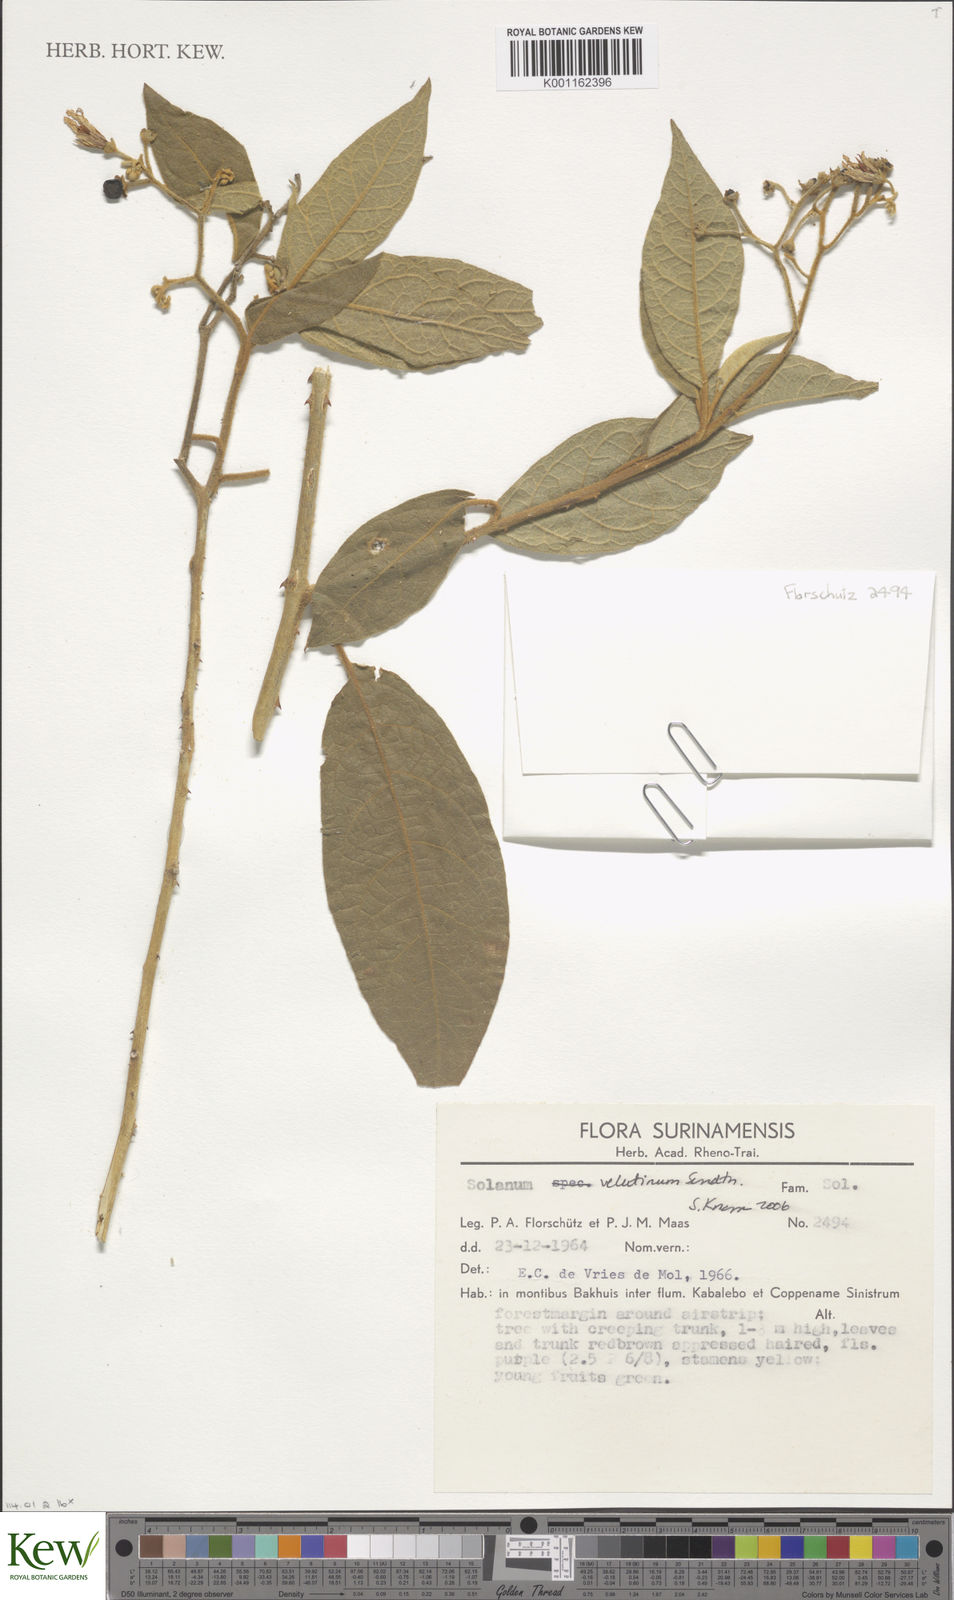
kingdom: Plantae
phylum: Tracheophyta
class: Magnoliopsida
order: Solanales
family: Solanaceae
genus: Solanum
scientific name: Solanum velutinum
